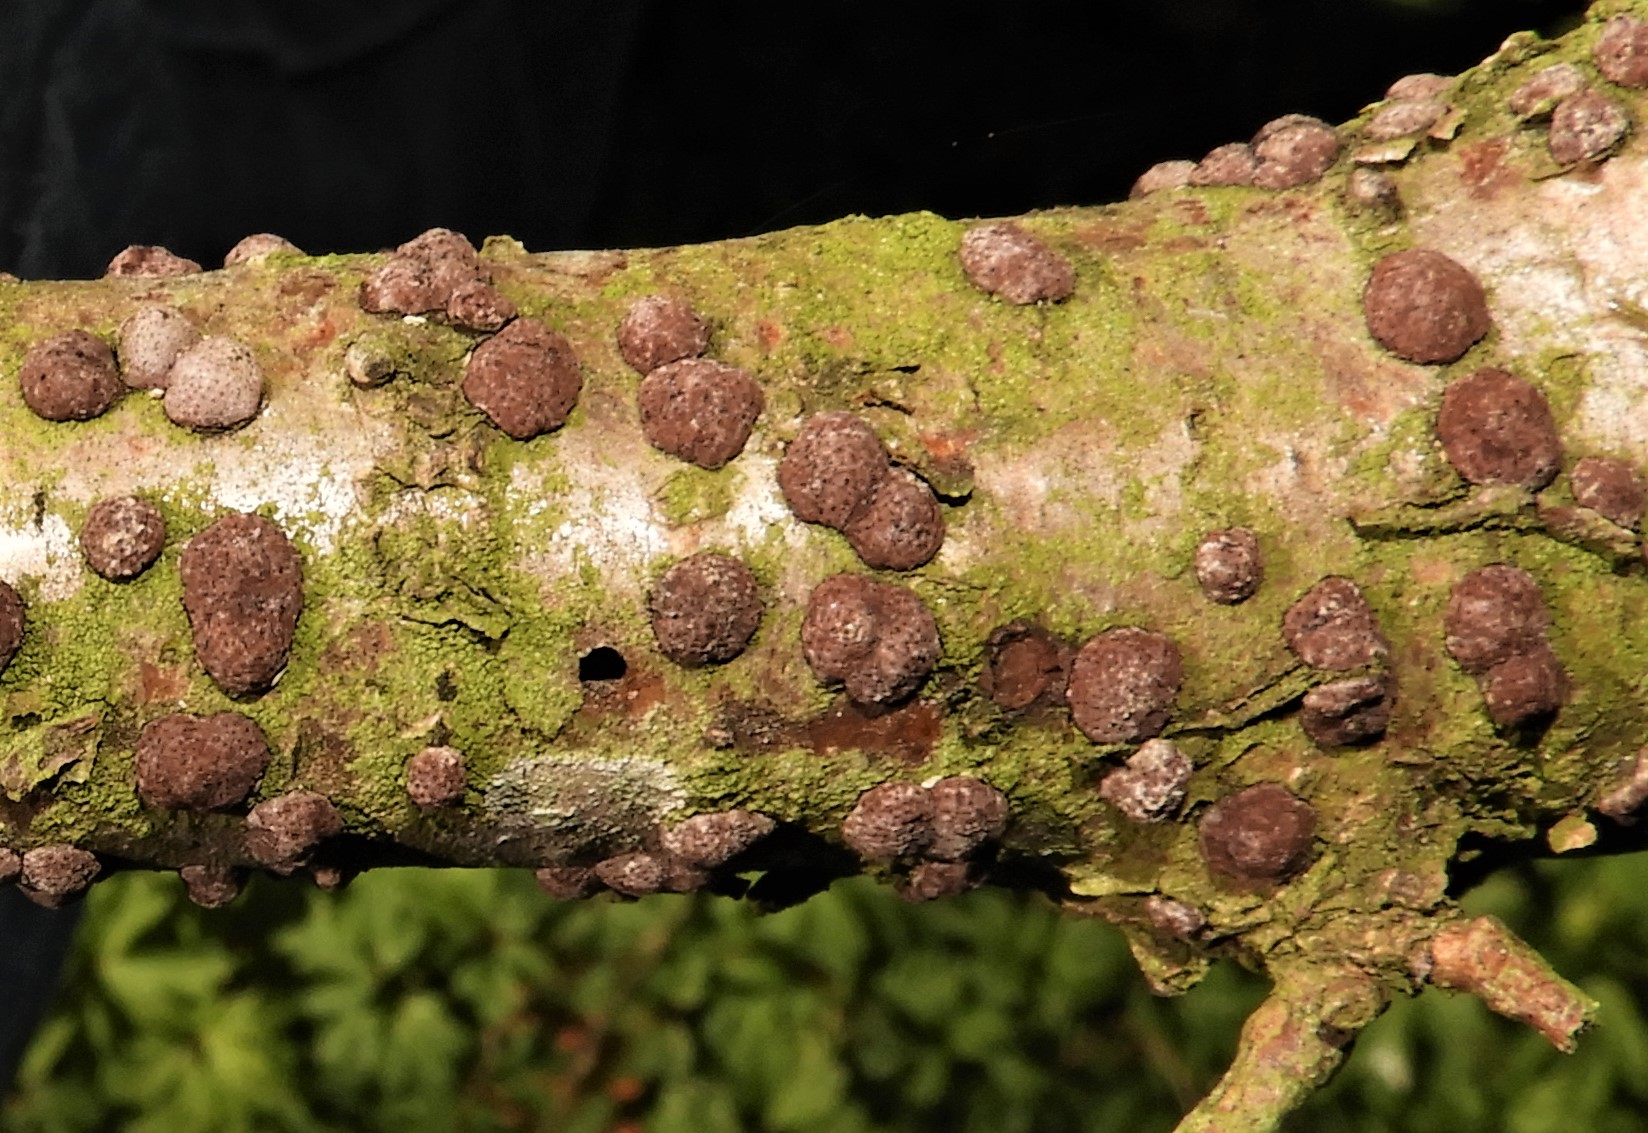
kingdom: Fungi
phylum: Ascomycota
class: Sordariomycetes
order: Xylariales
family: Hypoxylaceae
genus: Hypoxylon
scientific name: Hypoxylon fuscum
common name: kegleformet kulbær
